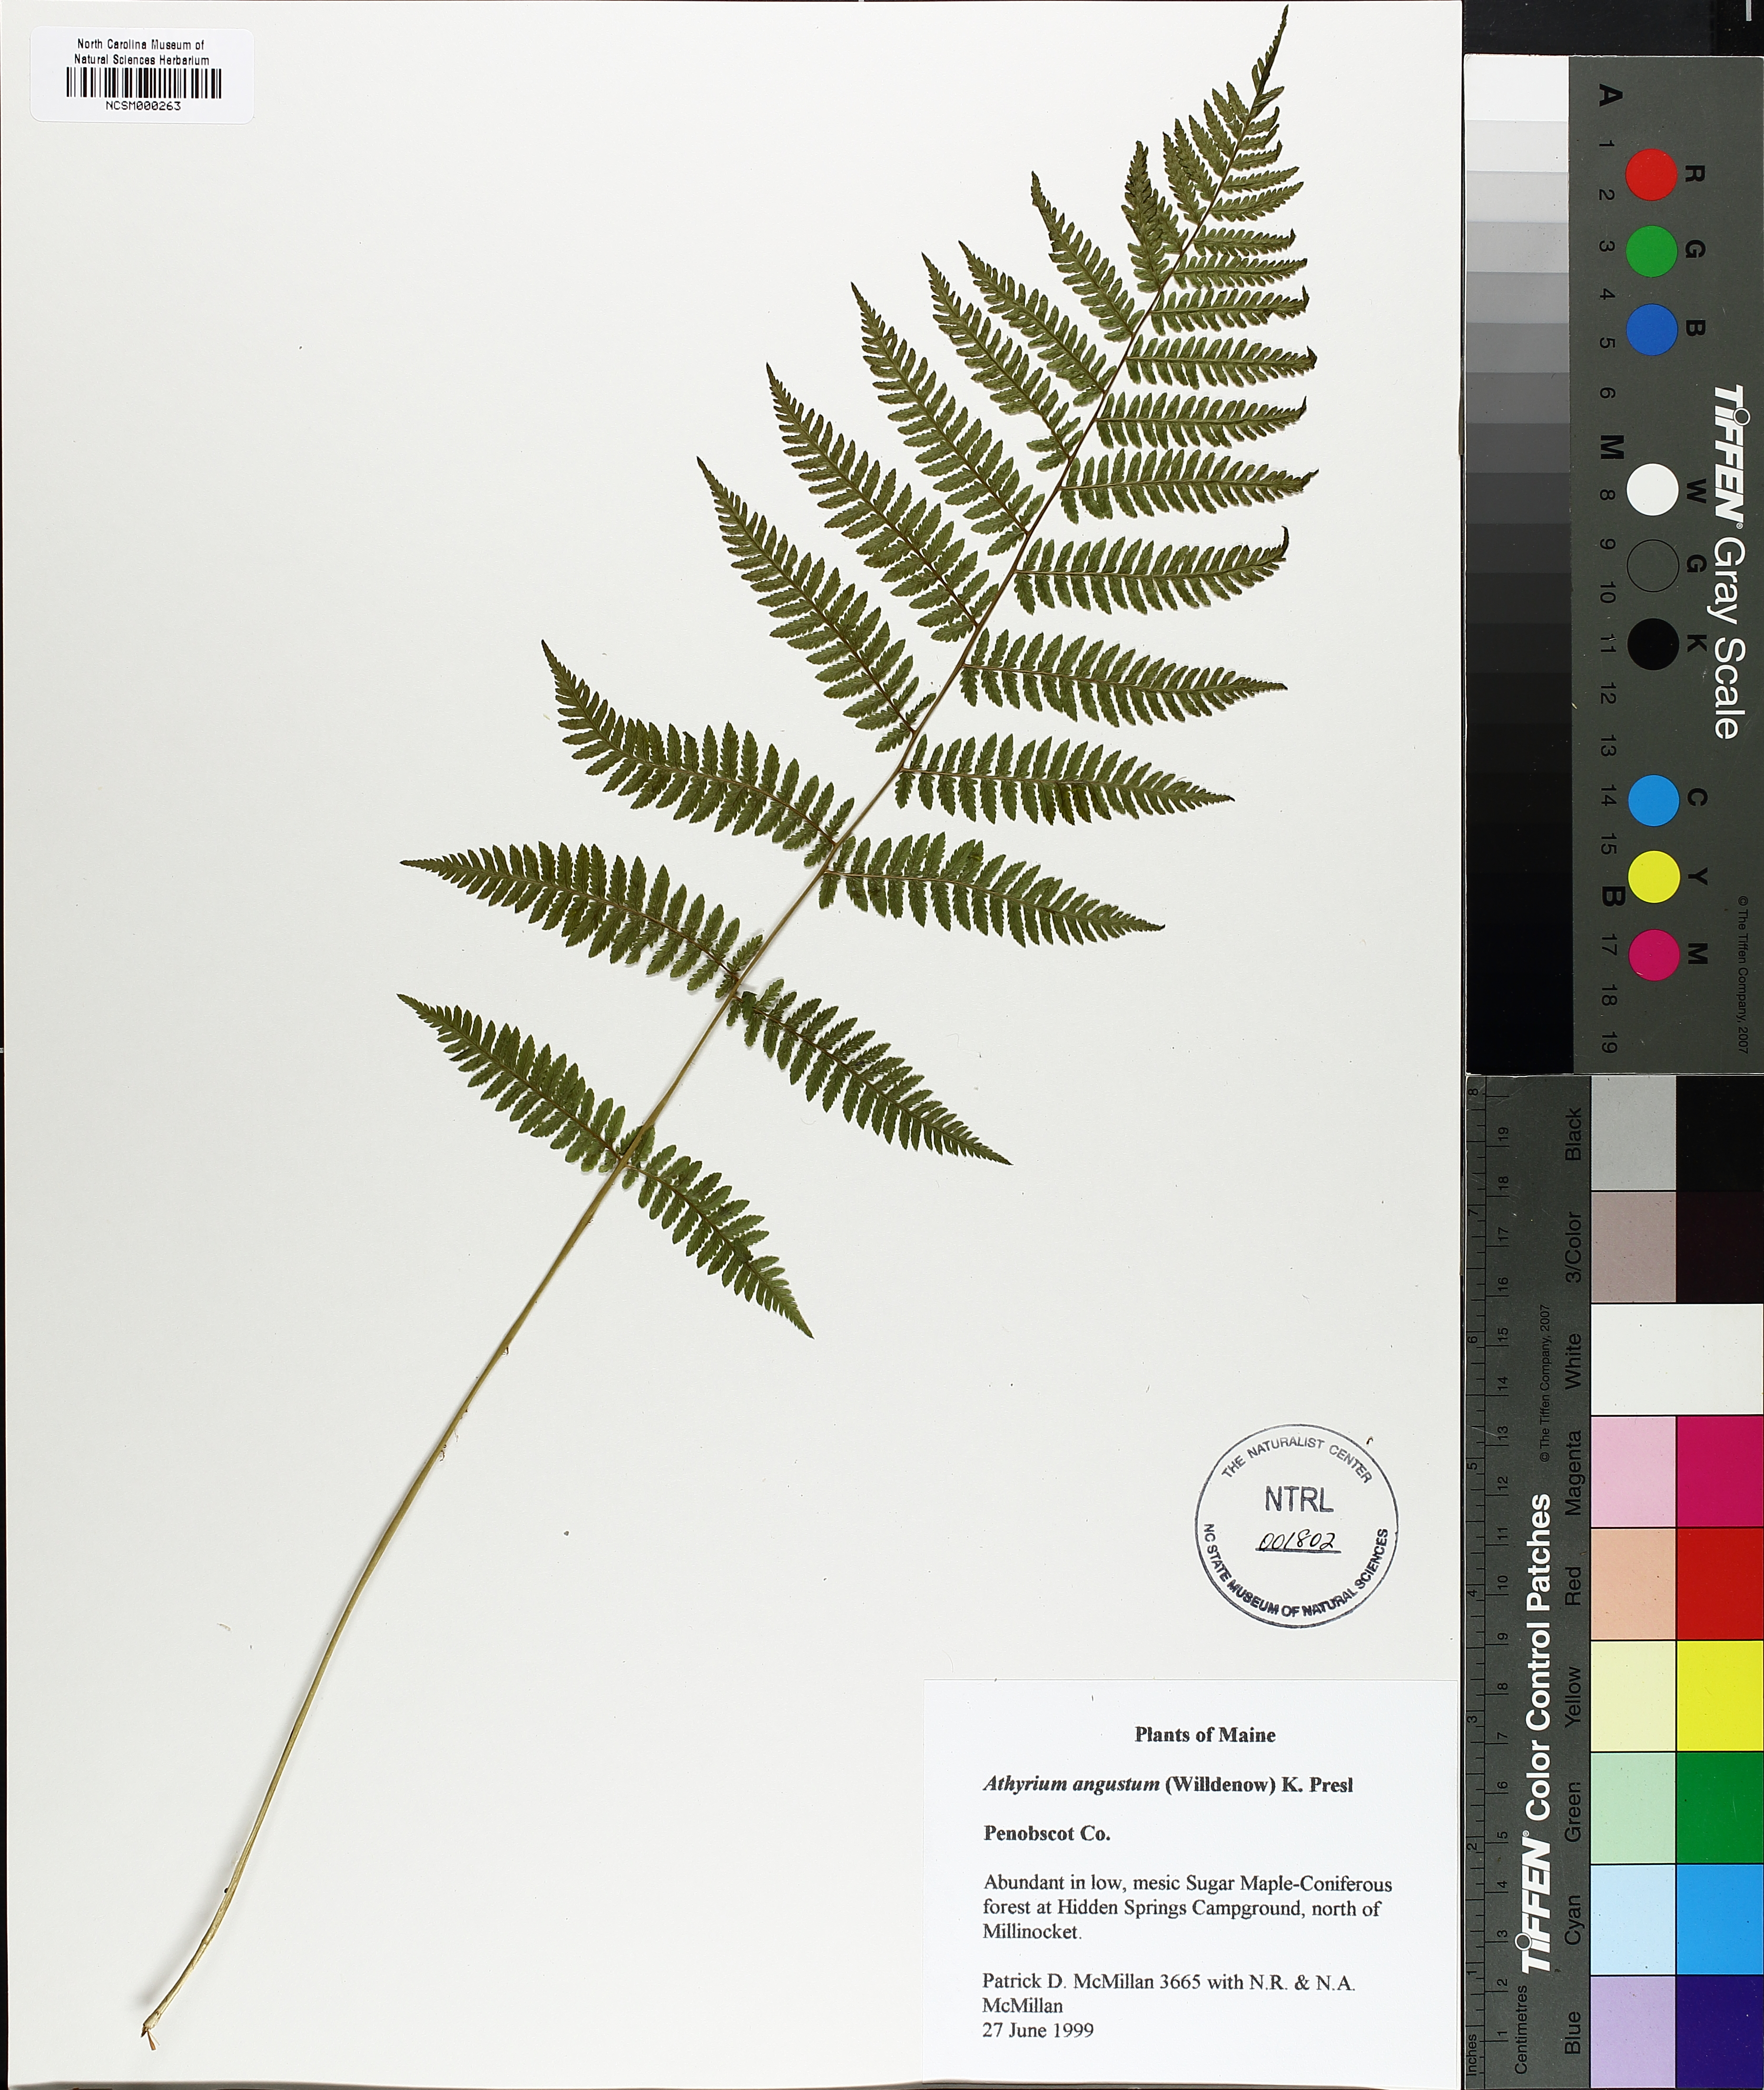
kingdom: Plantae
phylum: Tracheophyta
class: Polypodiopsida
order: Polypodiales
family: Athyriaceae
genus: Athyrium
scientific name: Athyrium angustum
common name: Northern lady fern
